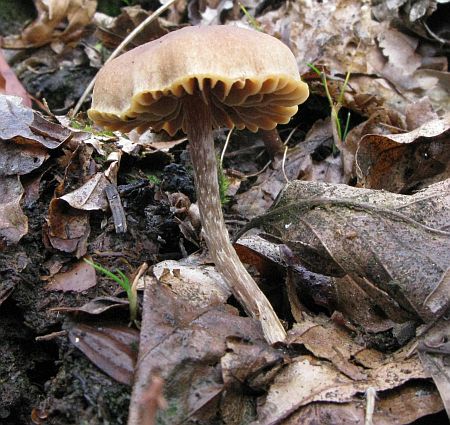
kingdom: Fungi
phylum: Basidiomycota
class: Agaricomycetes
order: Agaricales
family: Strophariaceae
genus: Bogbodia
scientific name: Bogbodia uda
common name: tørve-svovlhat
